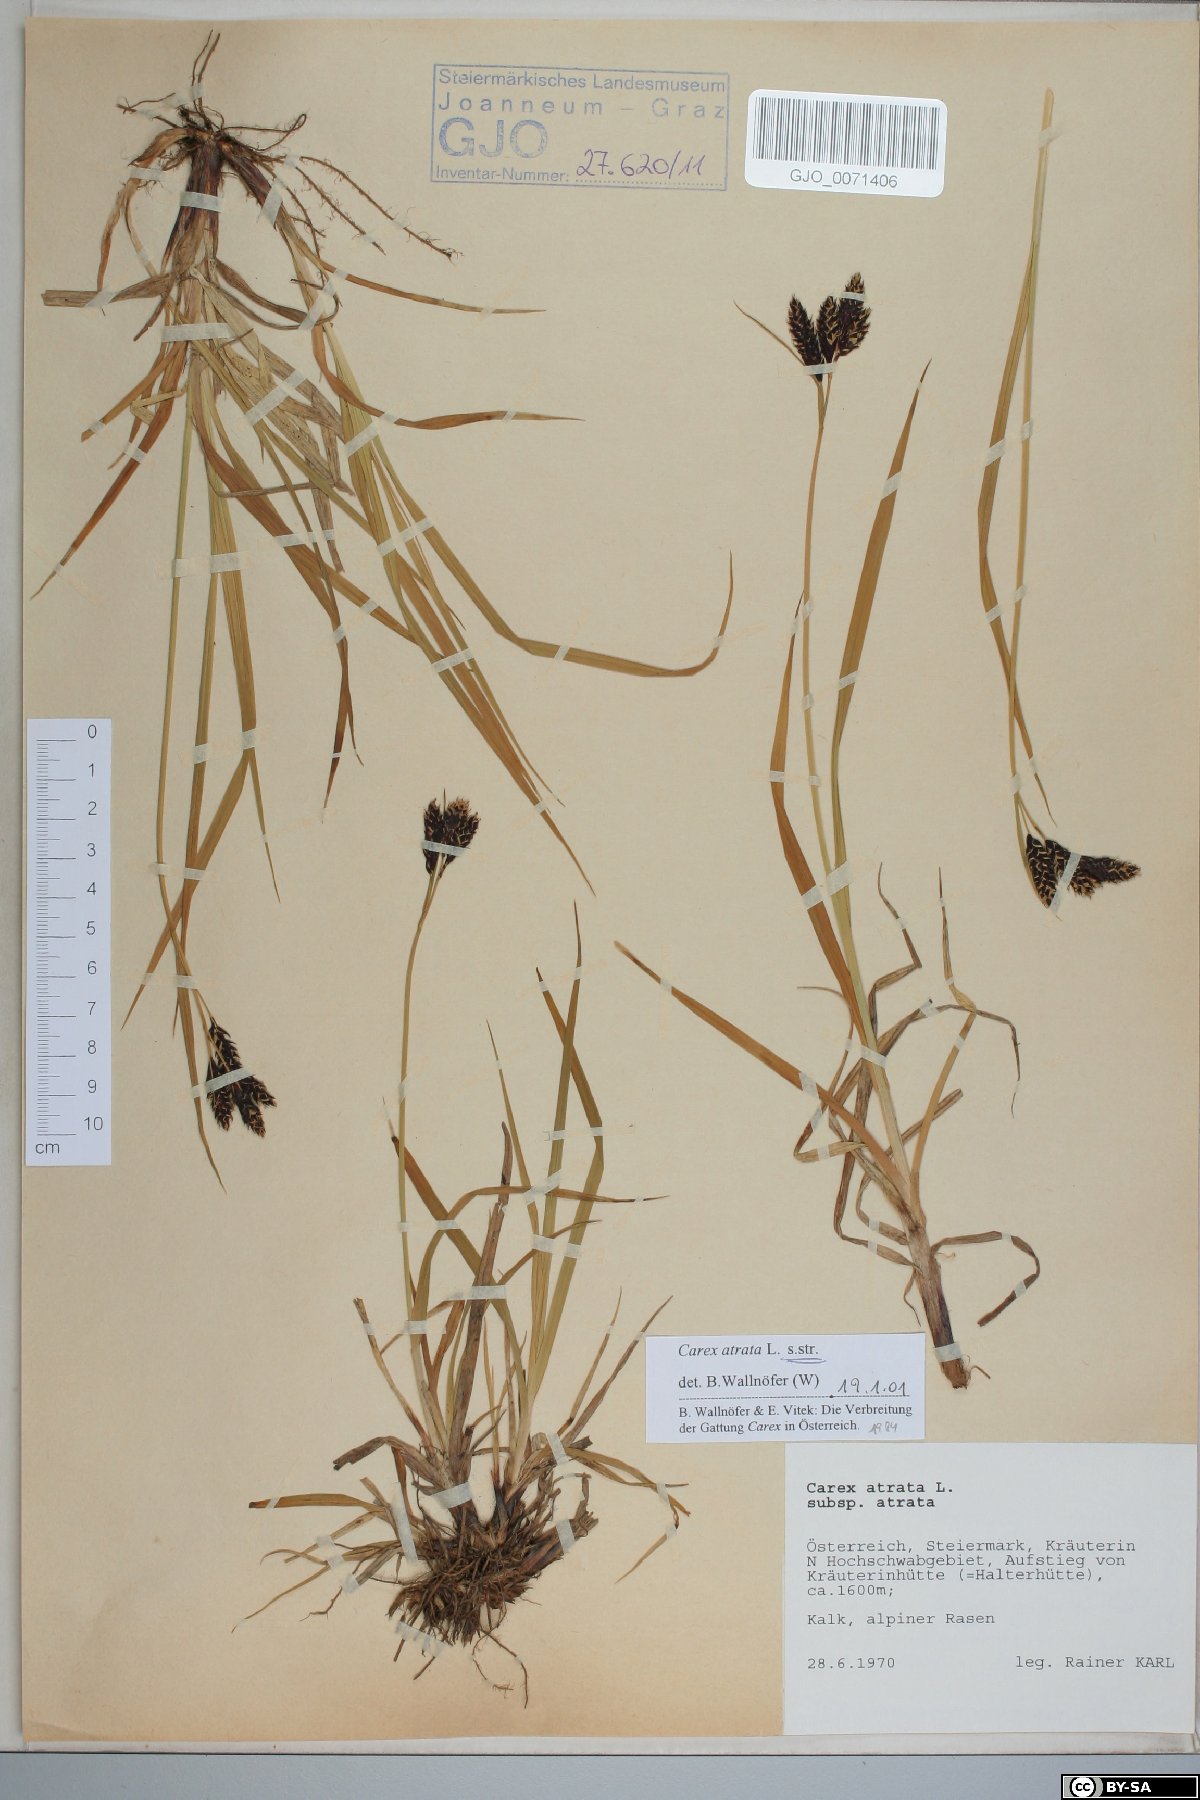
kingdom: Plantae
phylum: Tracheophyta
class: Liliopsida
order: Poales
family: Cyperaceae
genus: Carex
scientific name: Carex atrata
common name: Black alpine sedge
